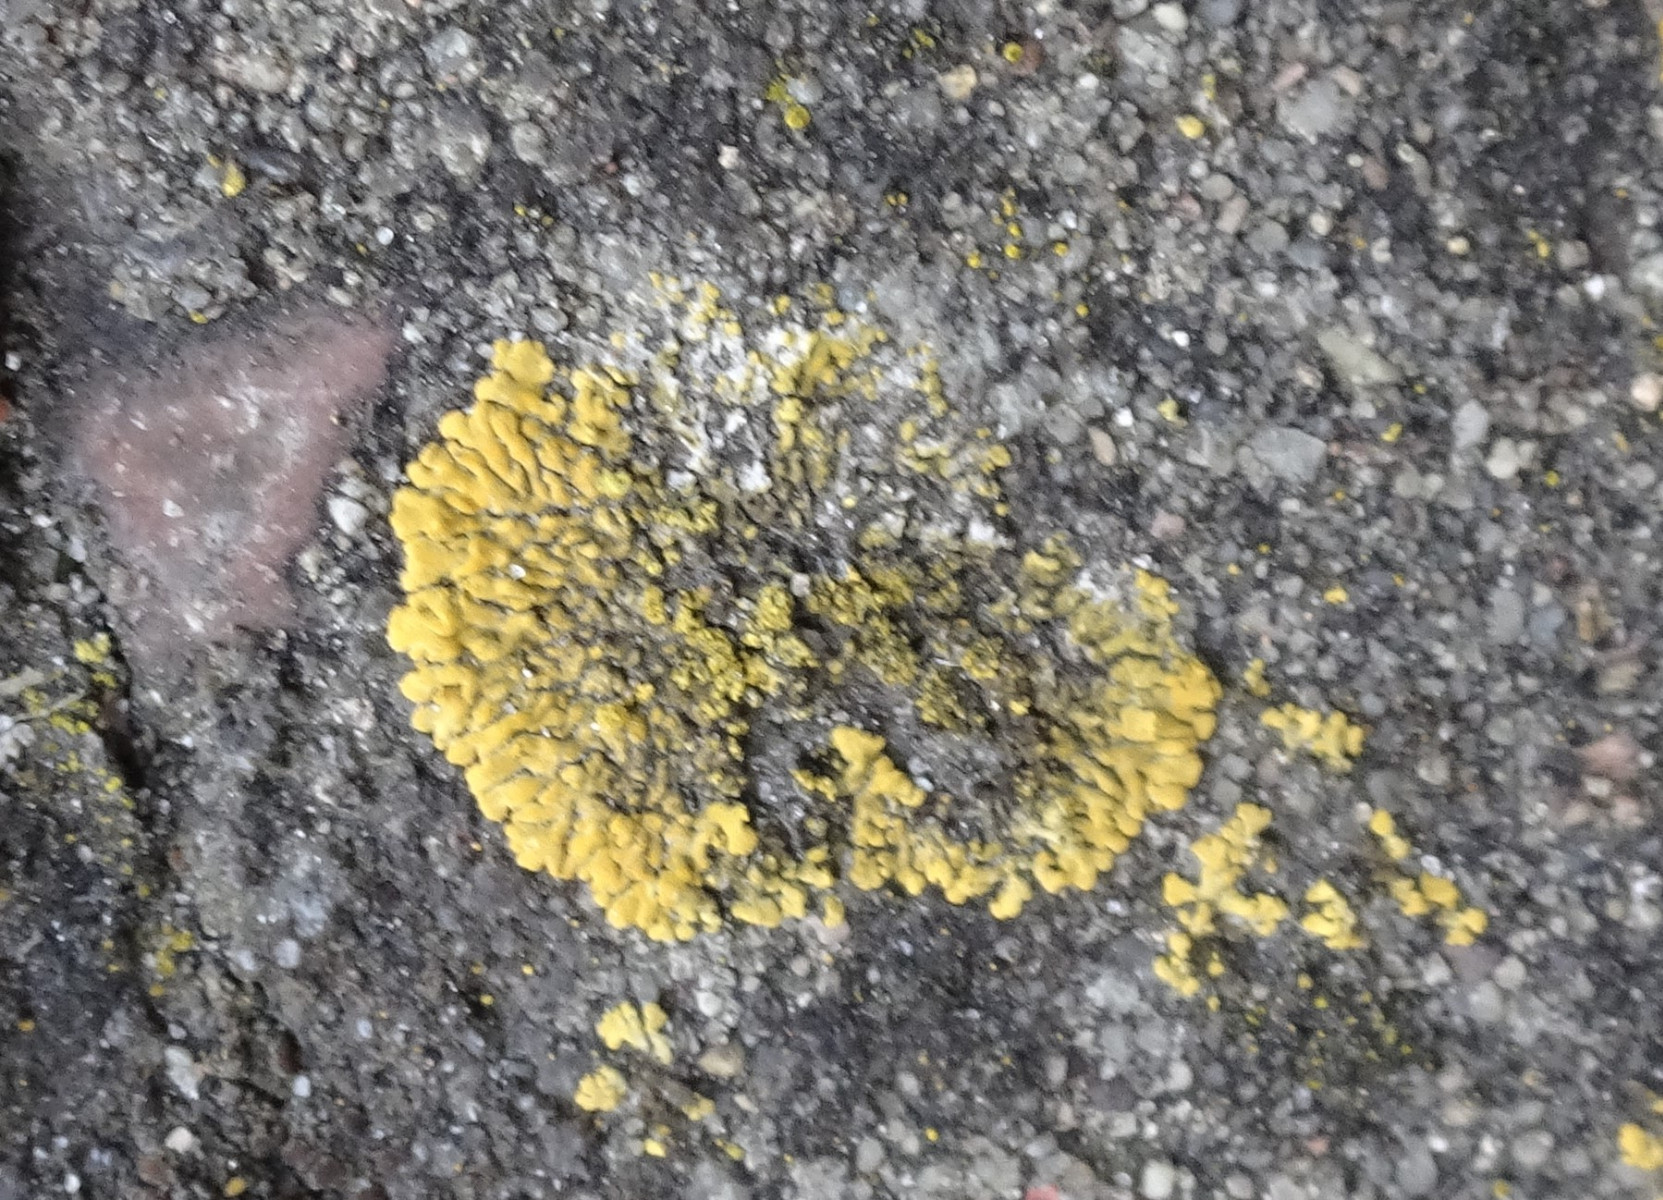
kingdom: Fungi
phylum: Ascomycota
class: Lecanoromycetes
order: Teloschistales
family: Teloschistaceae
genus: Calogaya
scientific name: Calogaya decipiens
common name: knudret orangelav
